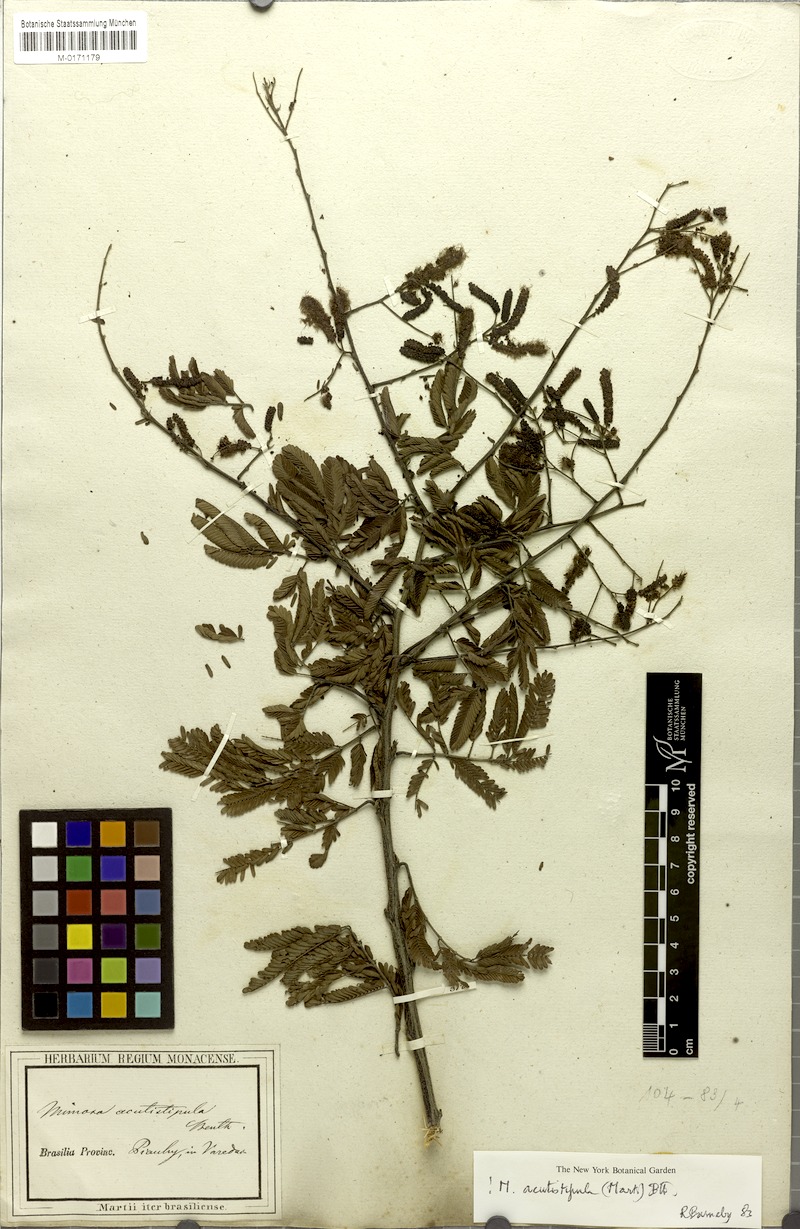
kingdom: Plantae
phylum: Tracheophyta
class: Magnoliopsida
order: Fabales
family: Fabaceae
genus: Mimosa
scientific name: Mimosa acutistipula
